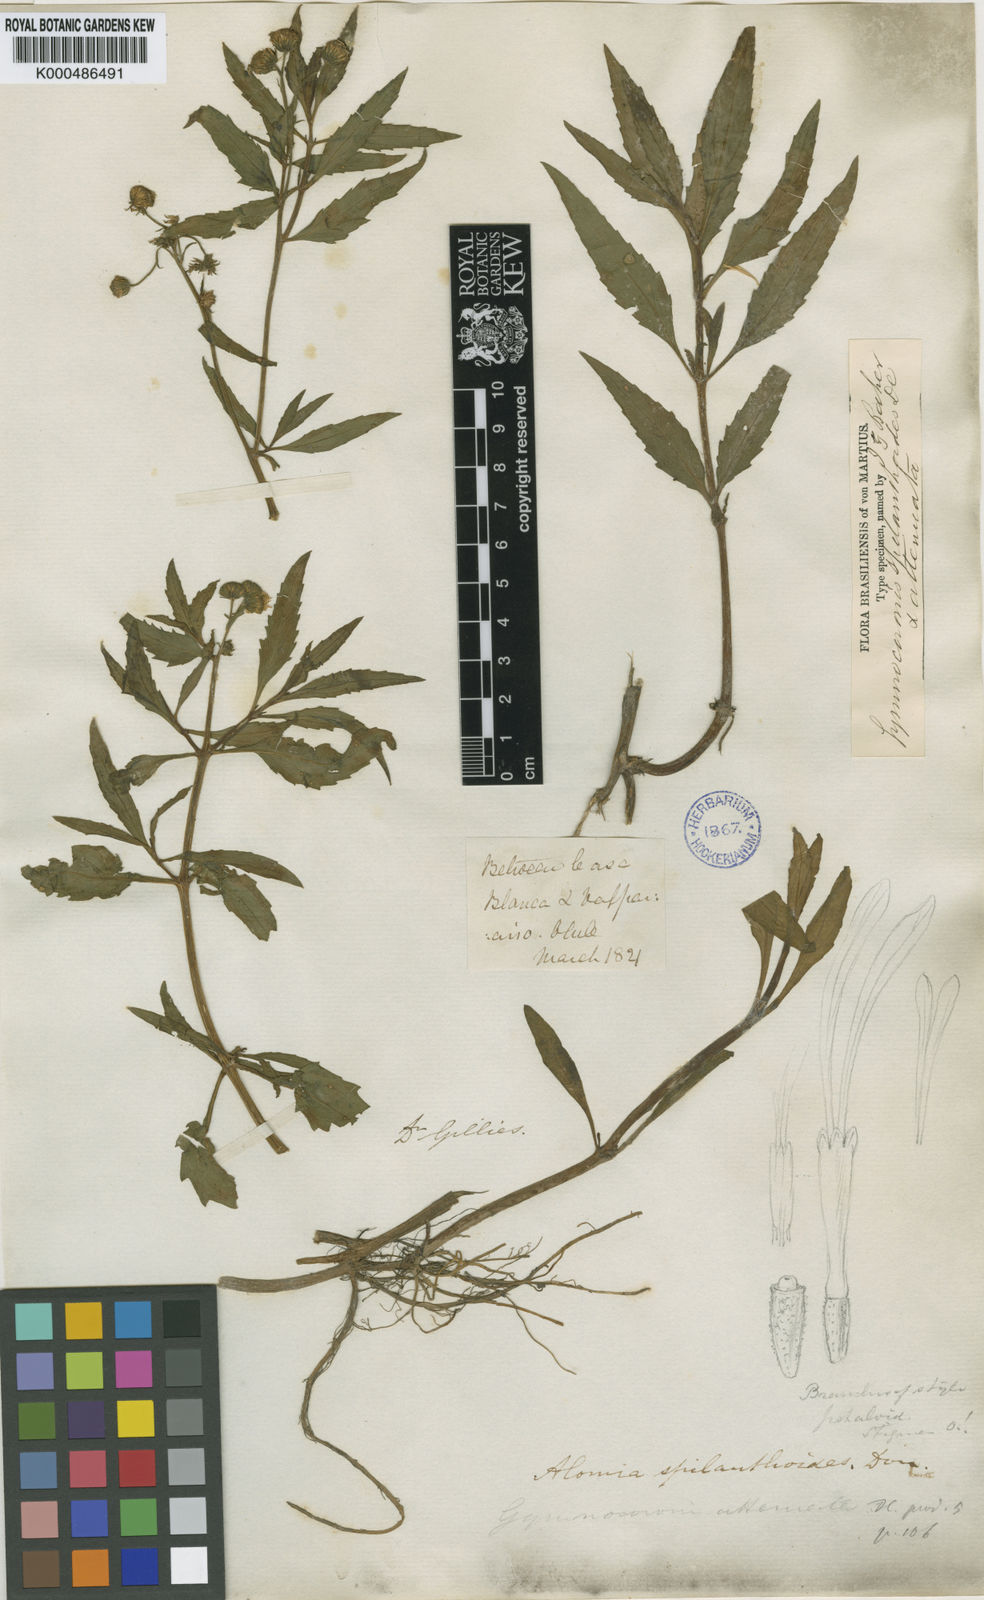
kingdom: Plantae
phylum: Tracheophyta
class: Magnoliopsida
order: Asterales
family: Asteraceae
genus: Gymnocoronis
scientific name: Gymnocoronis spilanthoides
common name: Senegal teaplant
